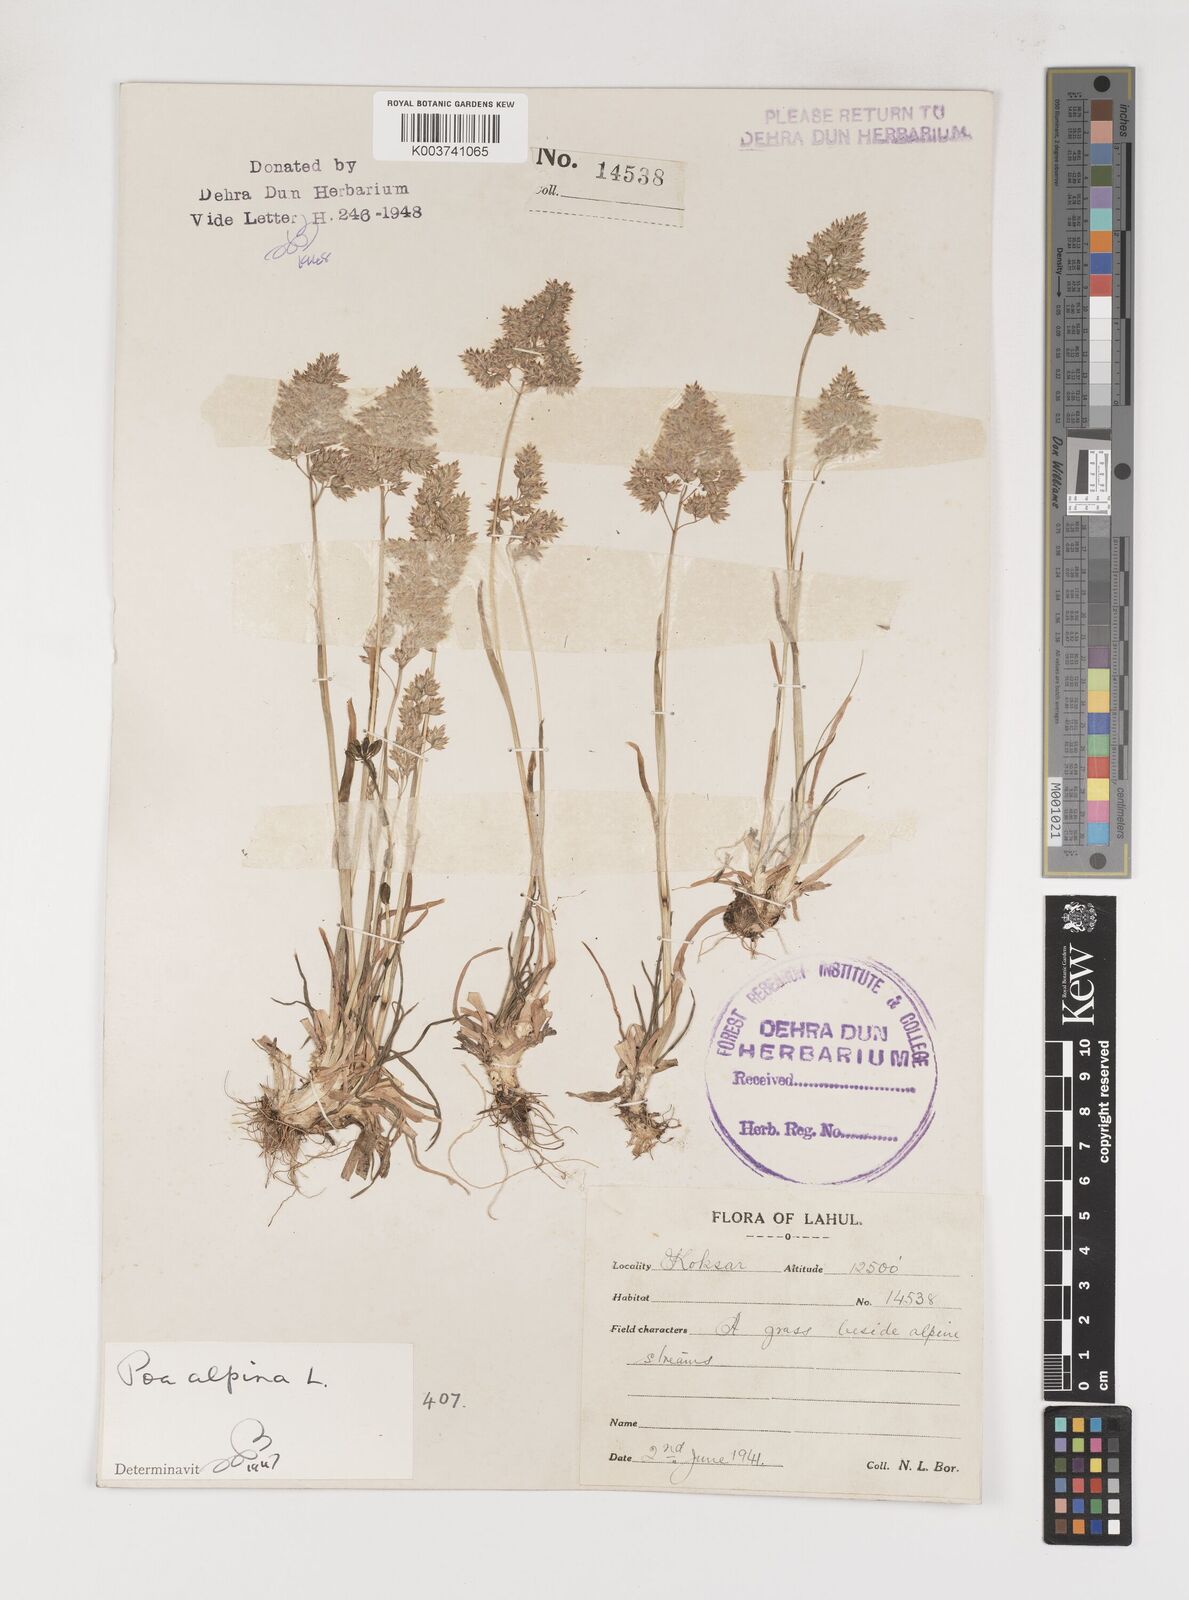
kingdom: Plantae
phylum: Tracheophyta
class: Liliopsida
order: Poales
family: Poaceae
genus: Poa
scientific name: Poa alpina
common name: Alpine bluegrass
